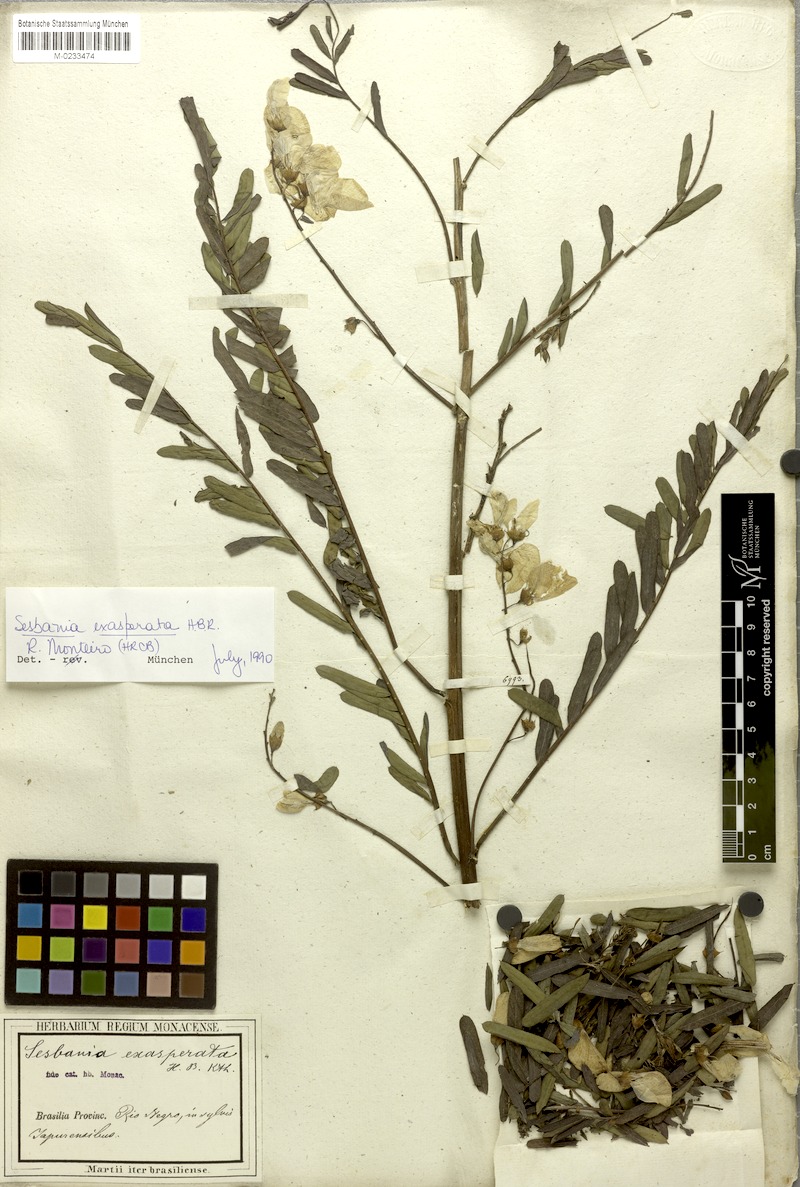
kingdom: Plantae
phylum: Tracheophyta
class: Magnoliopsida
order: Fabales
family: Fabaceae
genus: Sesbania
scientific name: Sesbania exasperata
